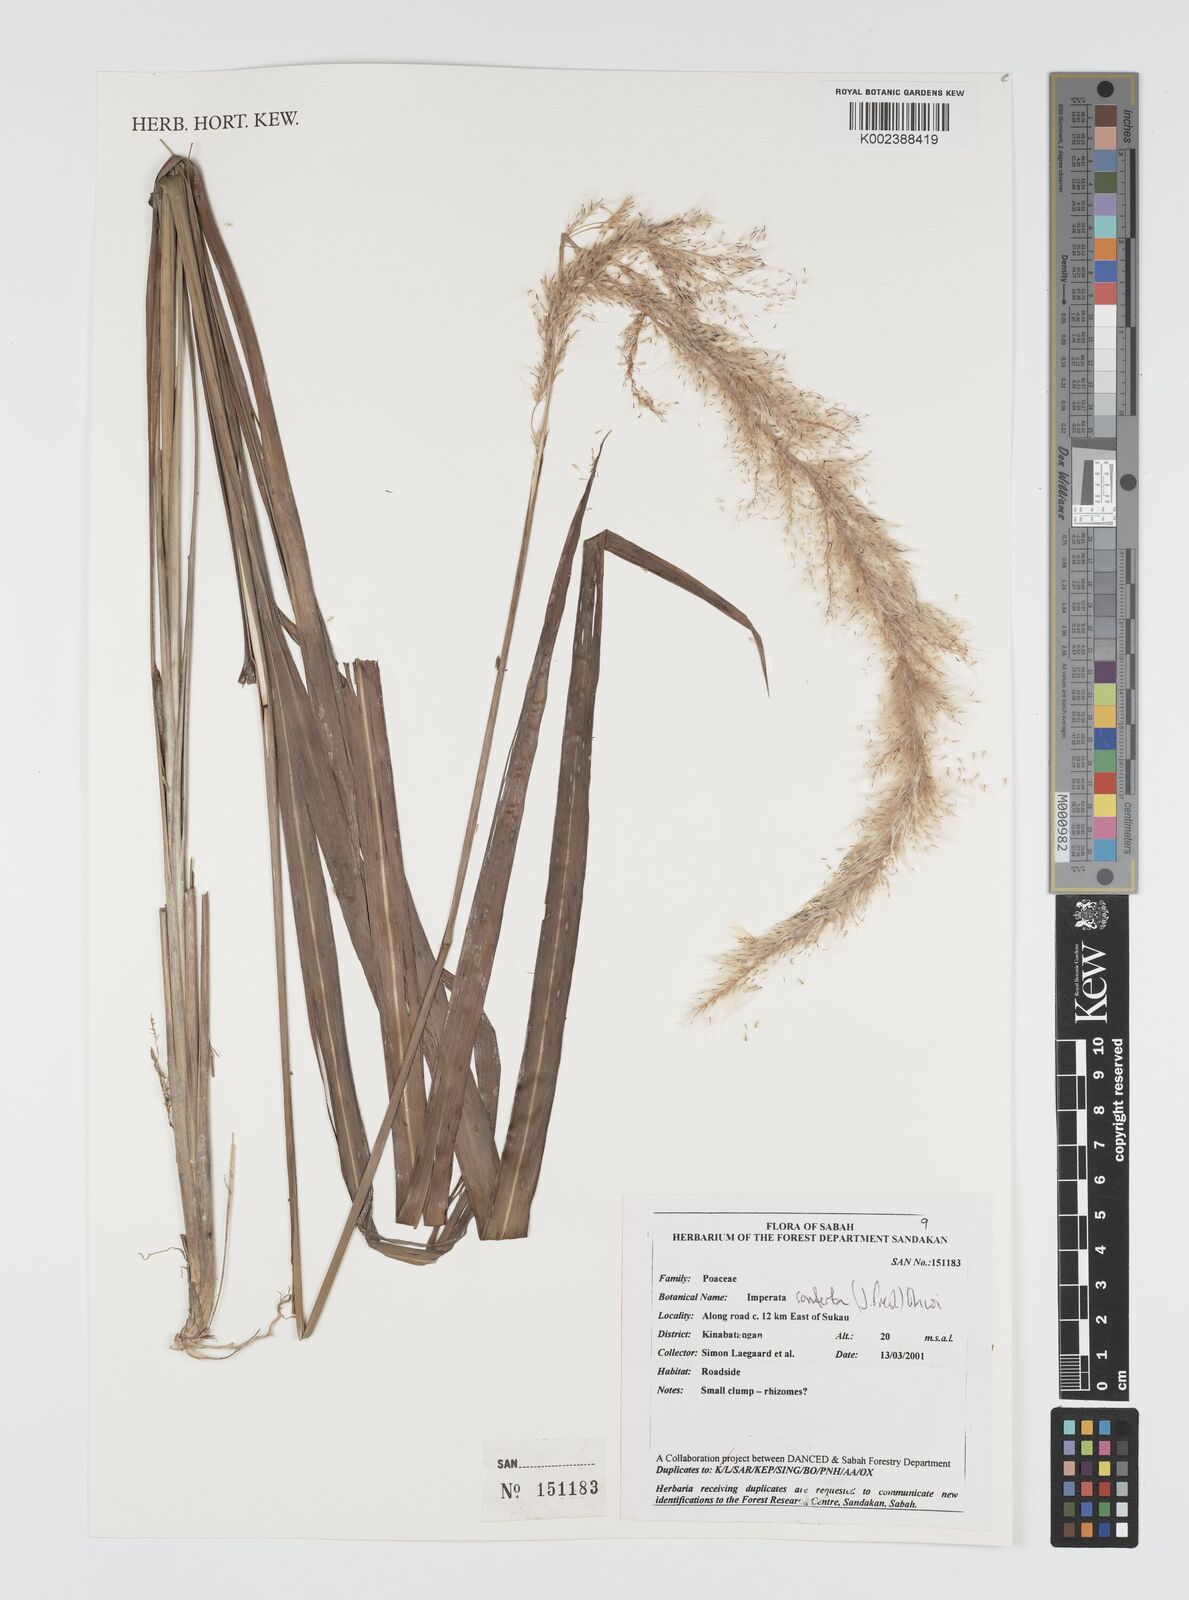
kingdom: Plantae
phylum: Tracheophyta
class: Liliopsida
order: Poales
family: Poaceae
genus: Imperata
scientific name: Imperata conferta
